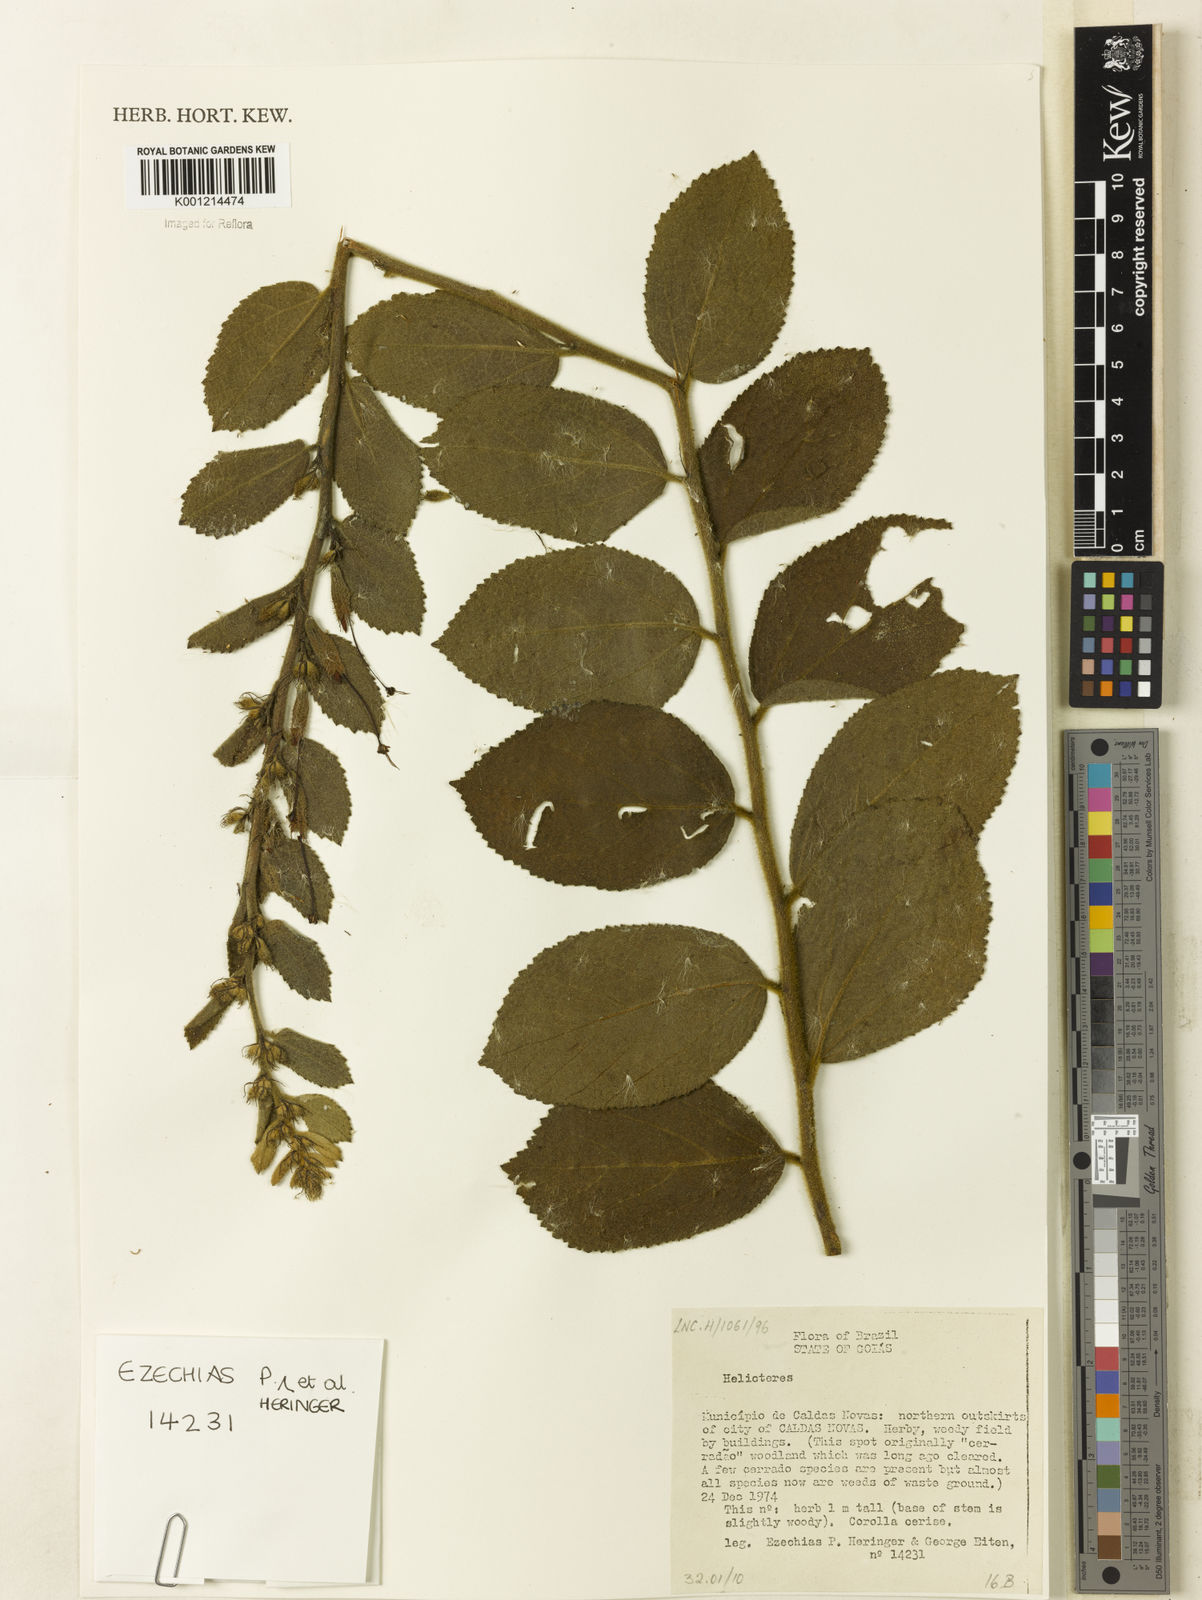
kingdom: Plantae
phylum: Tracheophyta
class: Magnoliopsida
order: Malvales
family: Malvaceae
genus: Helicteres
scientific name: Helicteres
